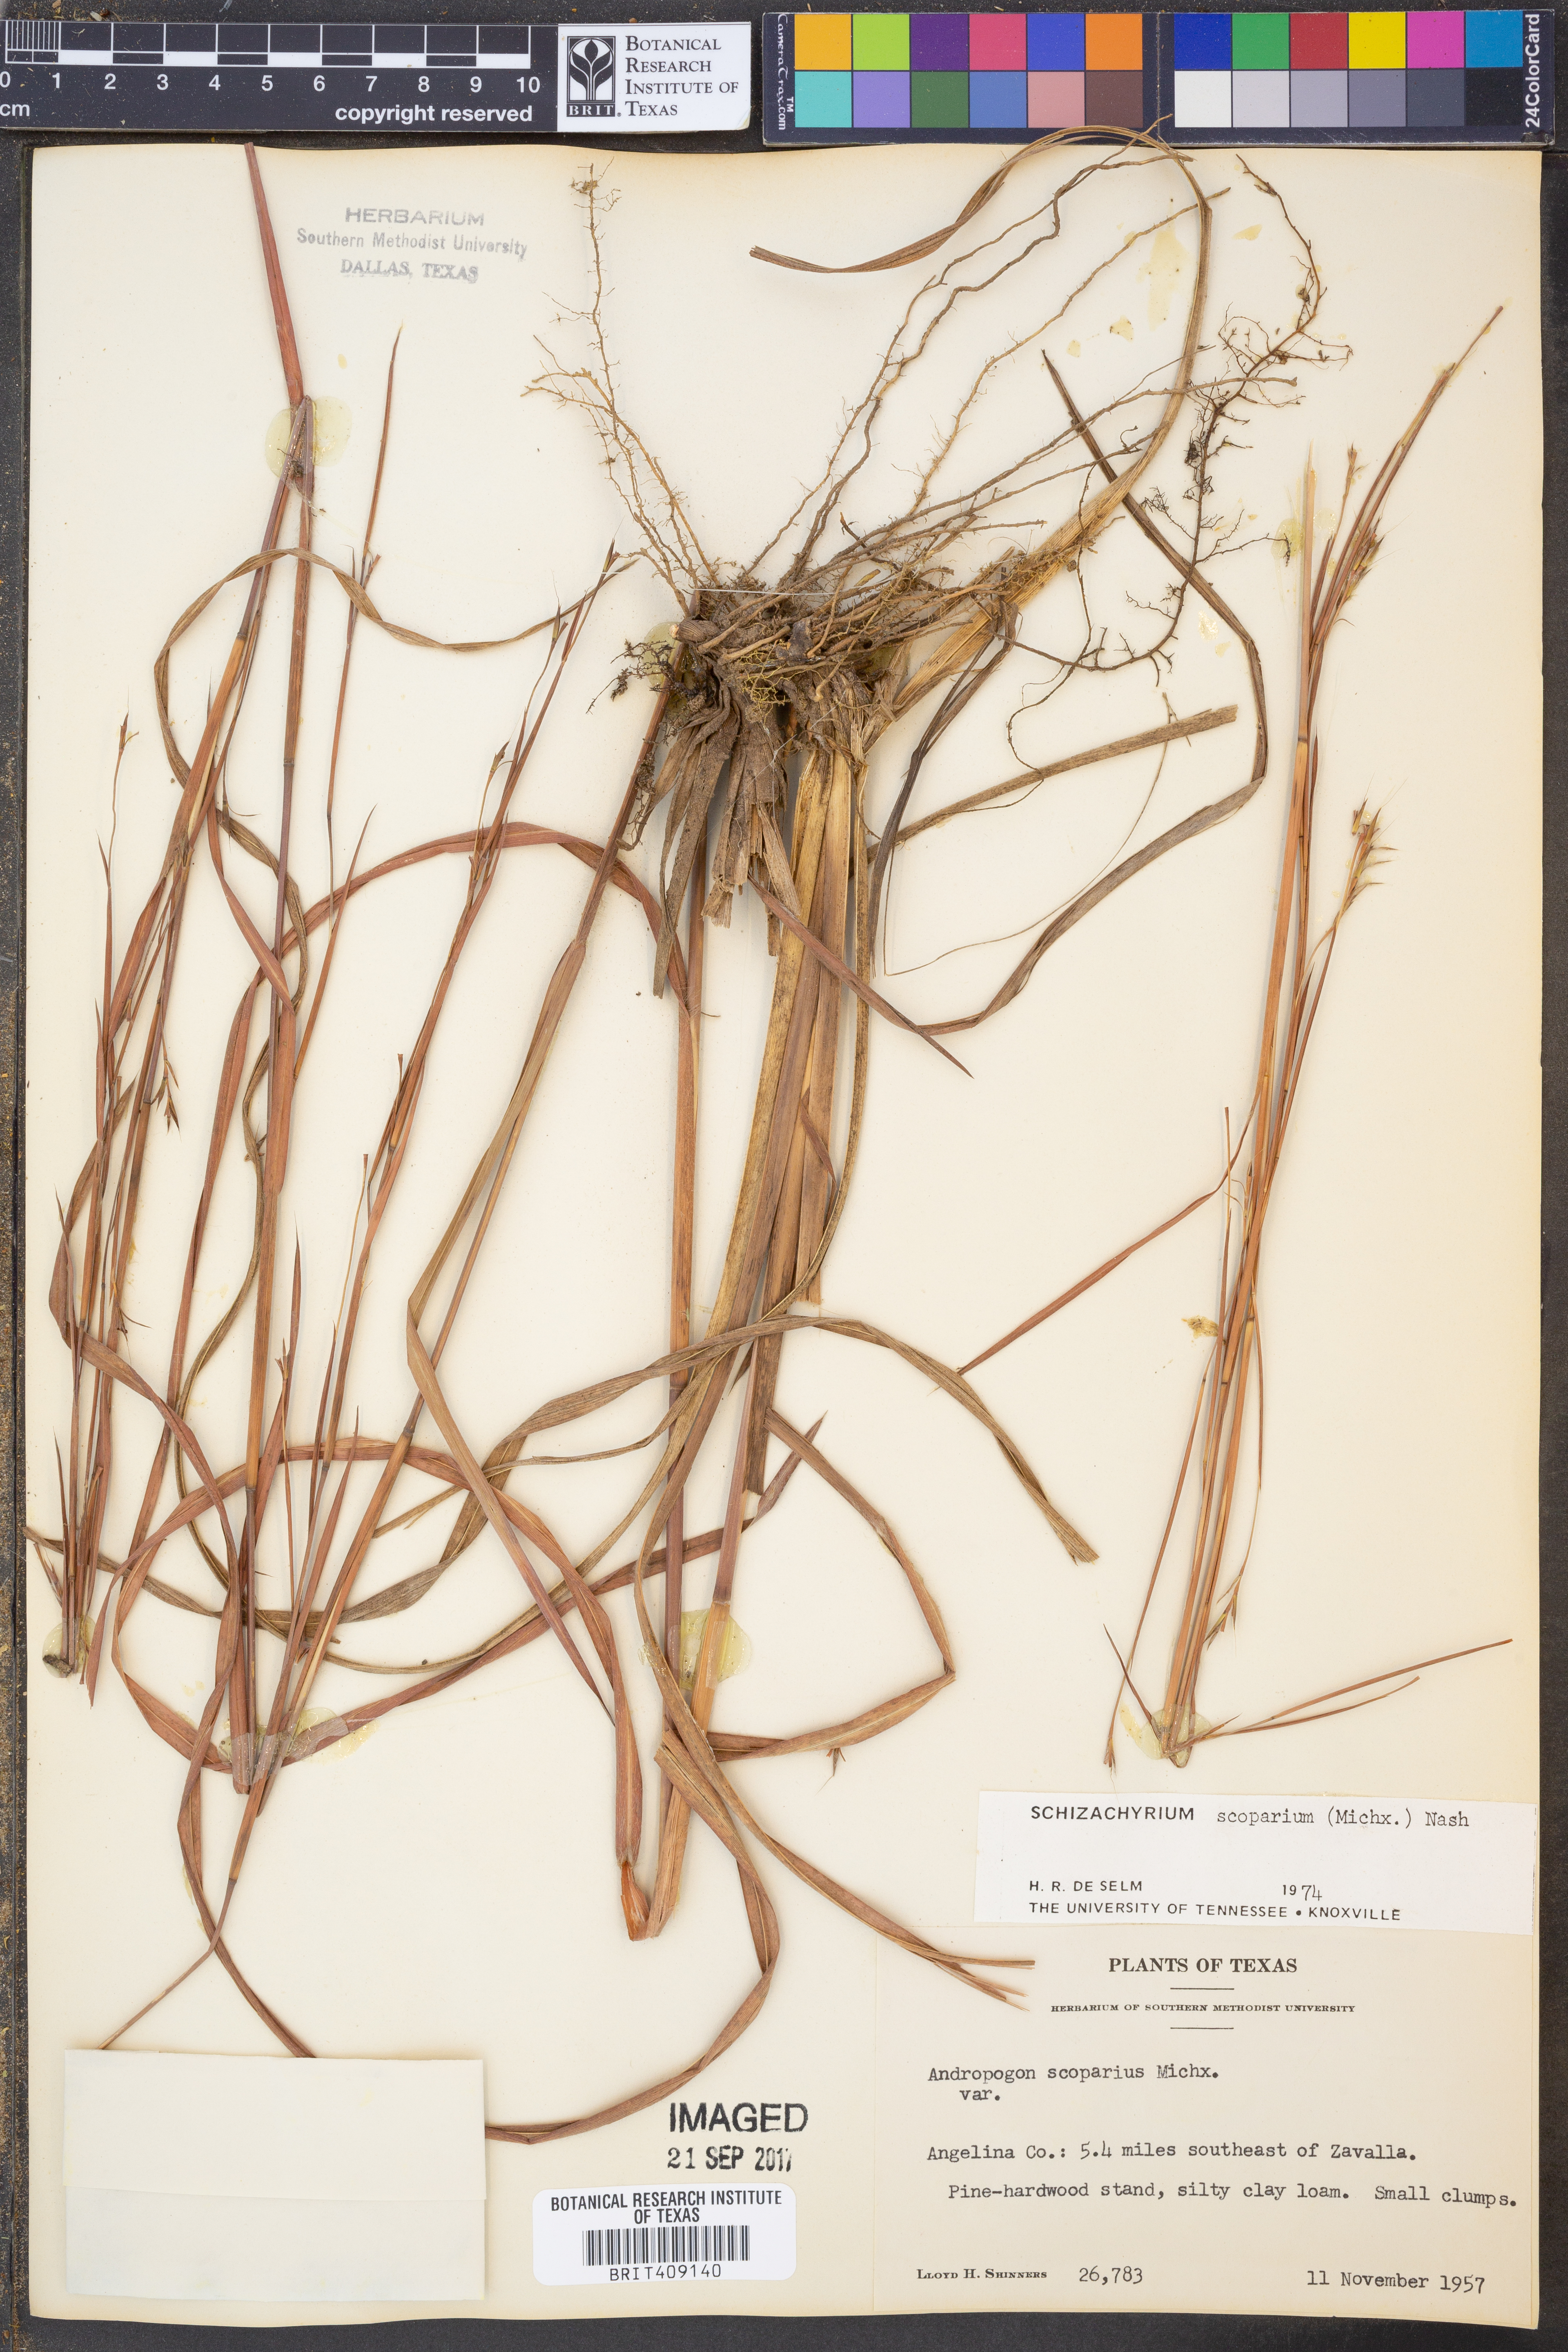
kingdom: Plantae
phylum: Tracheophyta
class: Liliopsida
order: Poales
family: Poaceae
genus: Schizachyrium
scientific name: Schizachyrium scoparium
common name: Little bluestem
